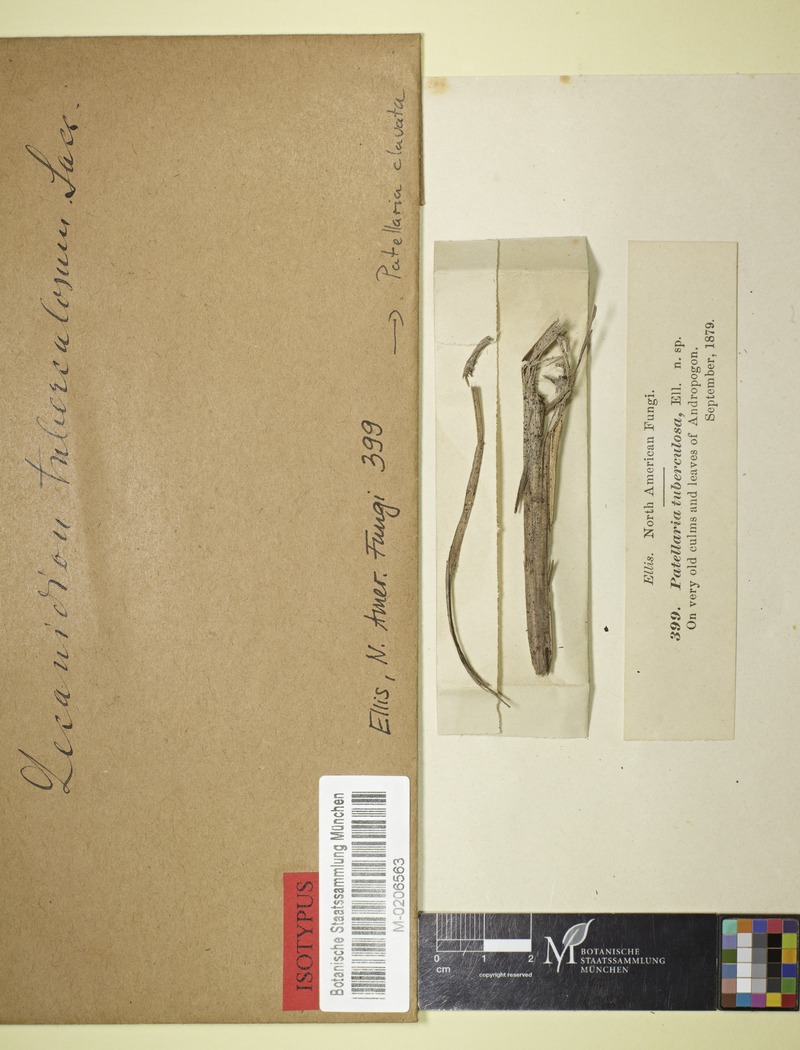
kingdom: Fungi
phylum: Ascomycota
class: Leotiomycetes
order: Helotiales
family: Lachnaceae
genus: Belonidium
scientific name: Belonidium clavatum
